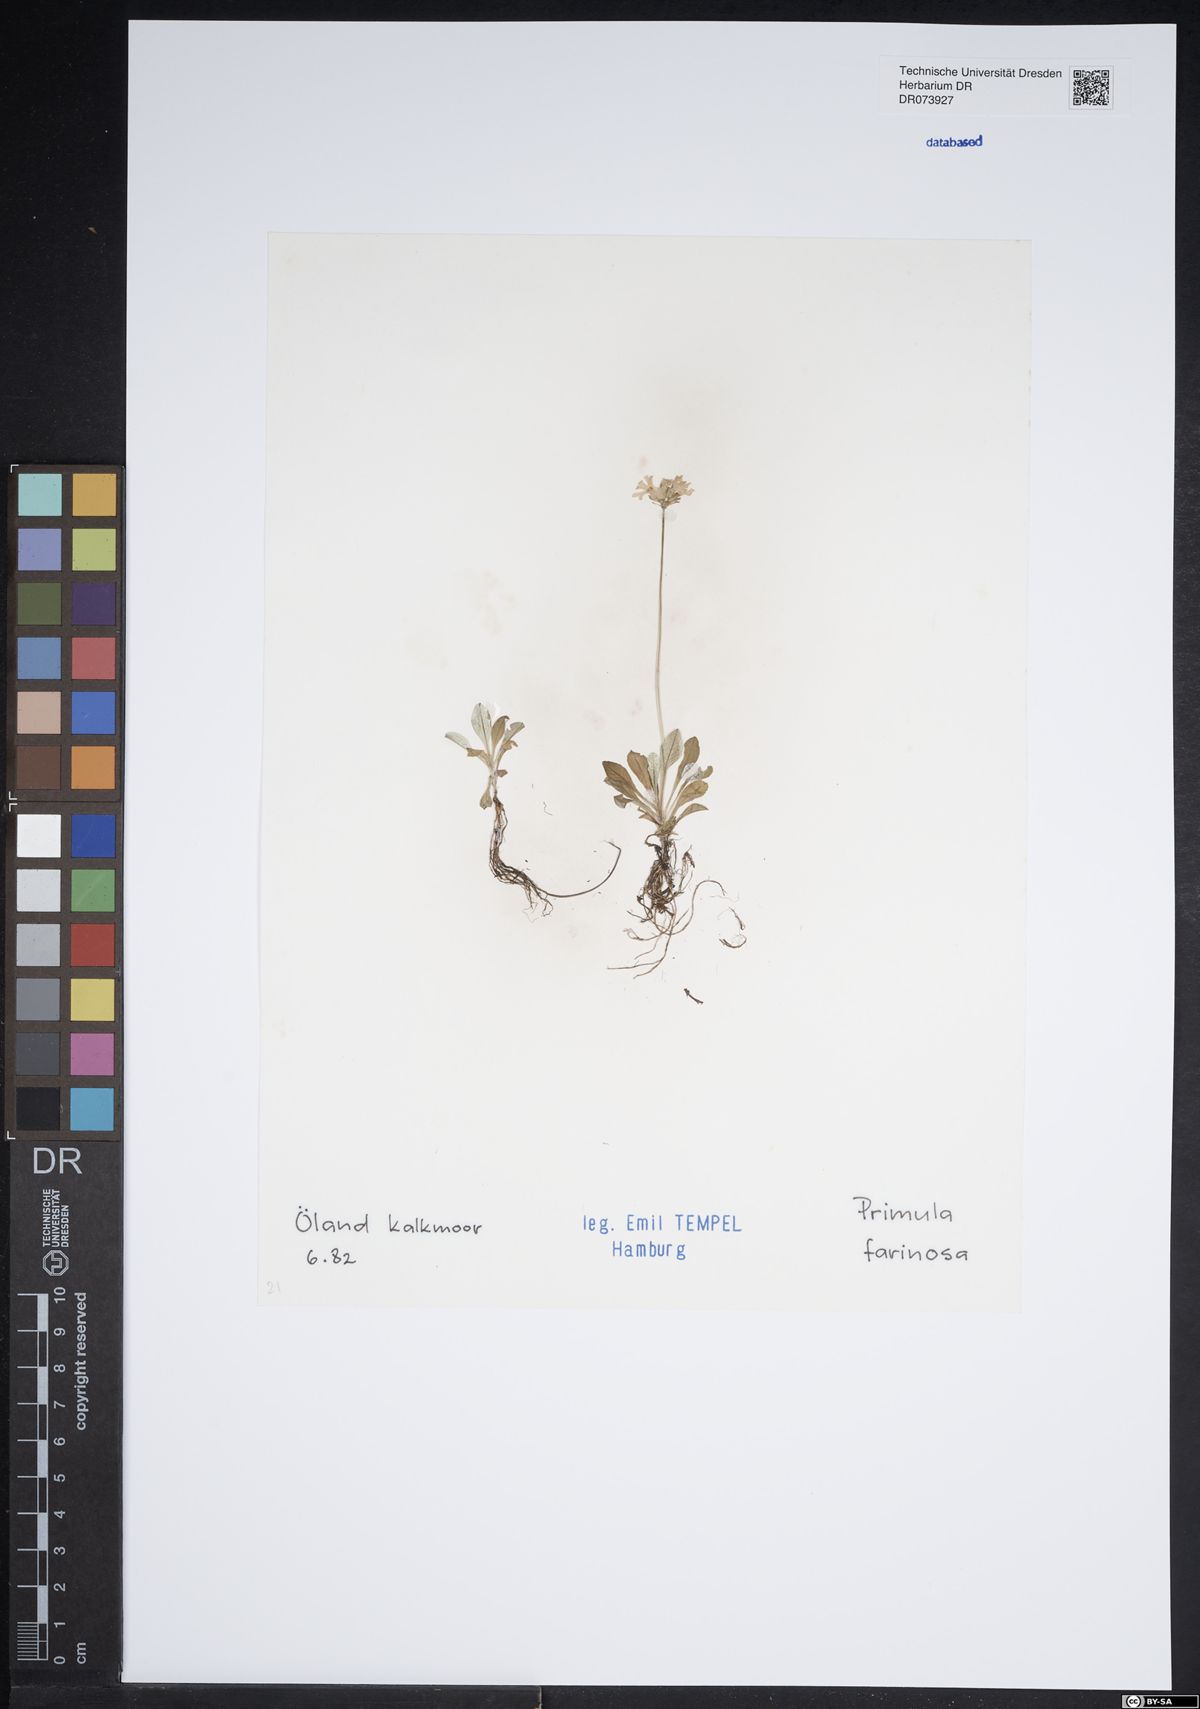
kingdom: Plantae
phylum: Tracheophyta
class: Magnoliopsida
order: Ericales
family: Primulaceae
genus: Primula
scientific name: Primula farinosa
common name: Bird's-eye primrose
